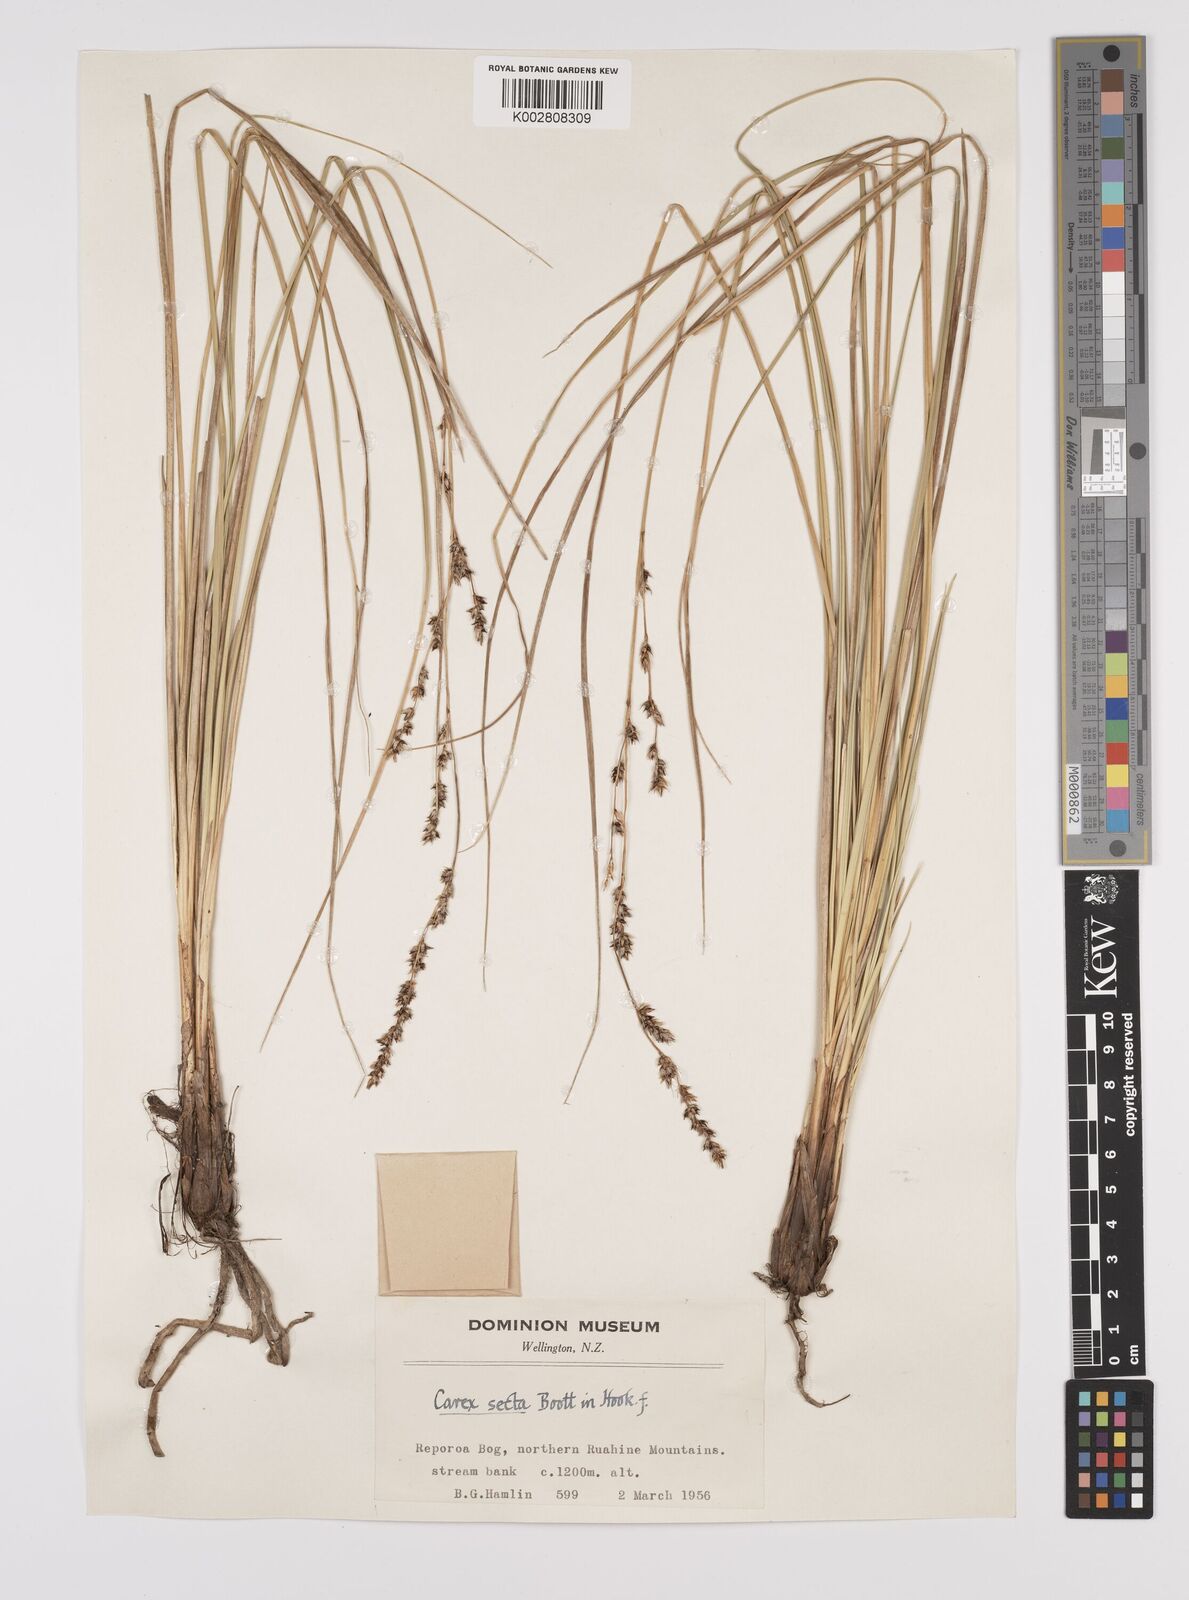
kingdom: Plantae
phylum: Tracheophyta
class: Liliopsida
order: Poales
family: Cyperaceae
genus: Carex
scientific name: Carex appressa
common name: Tussock sedge
